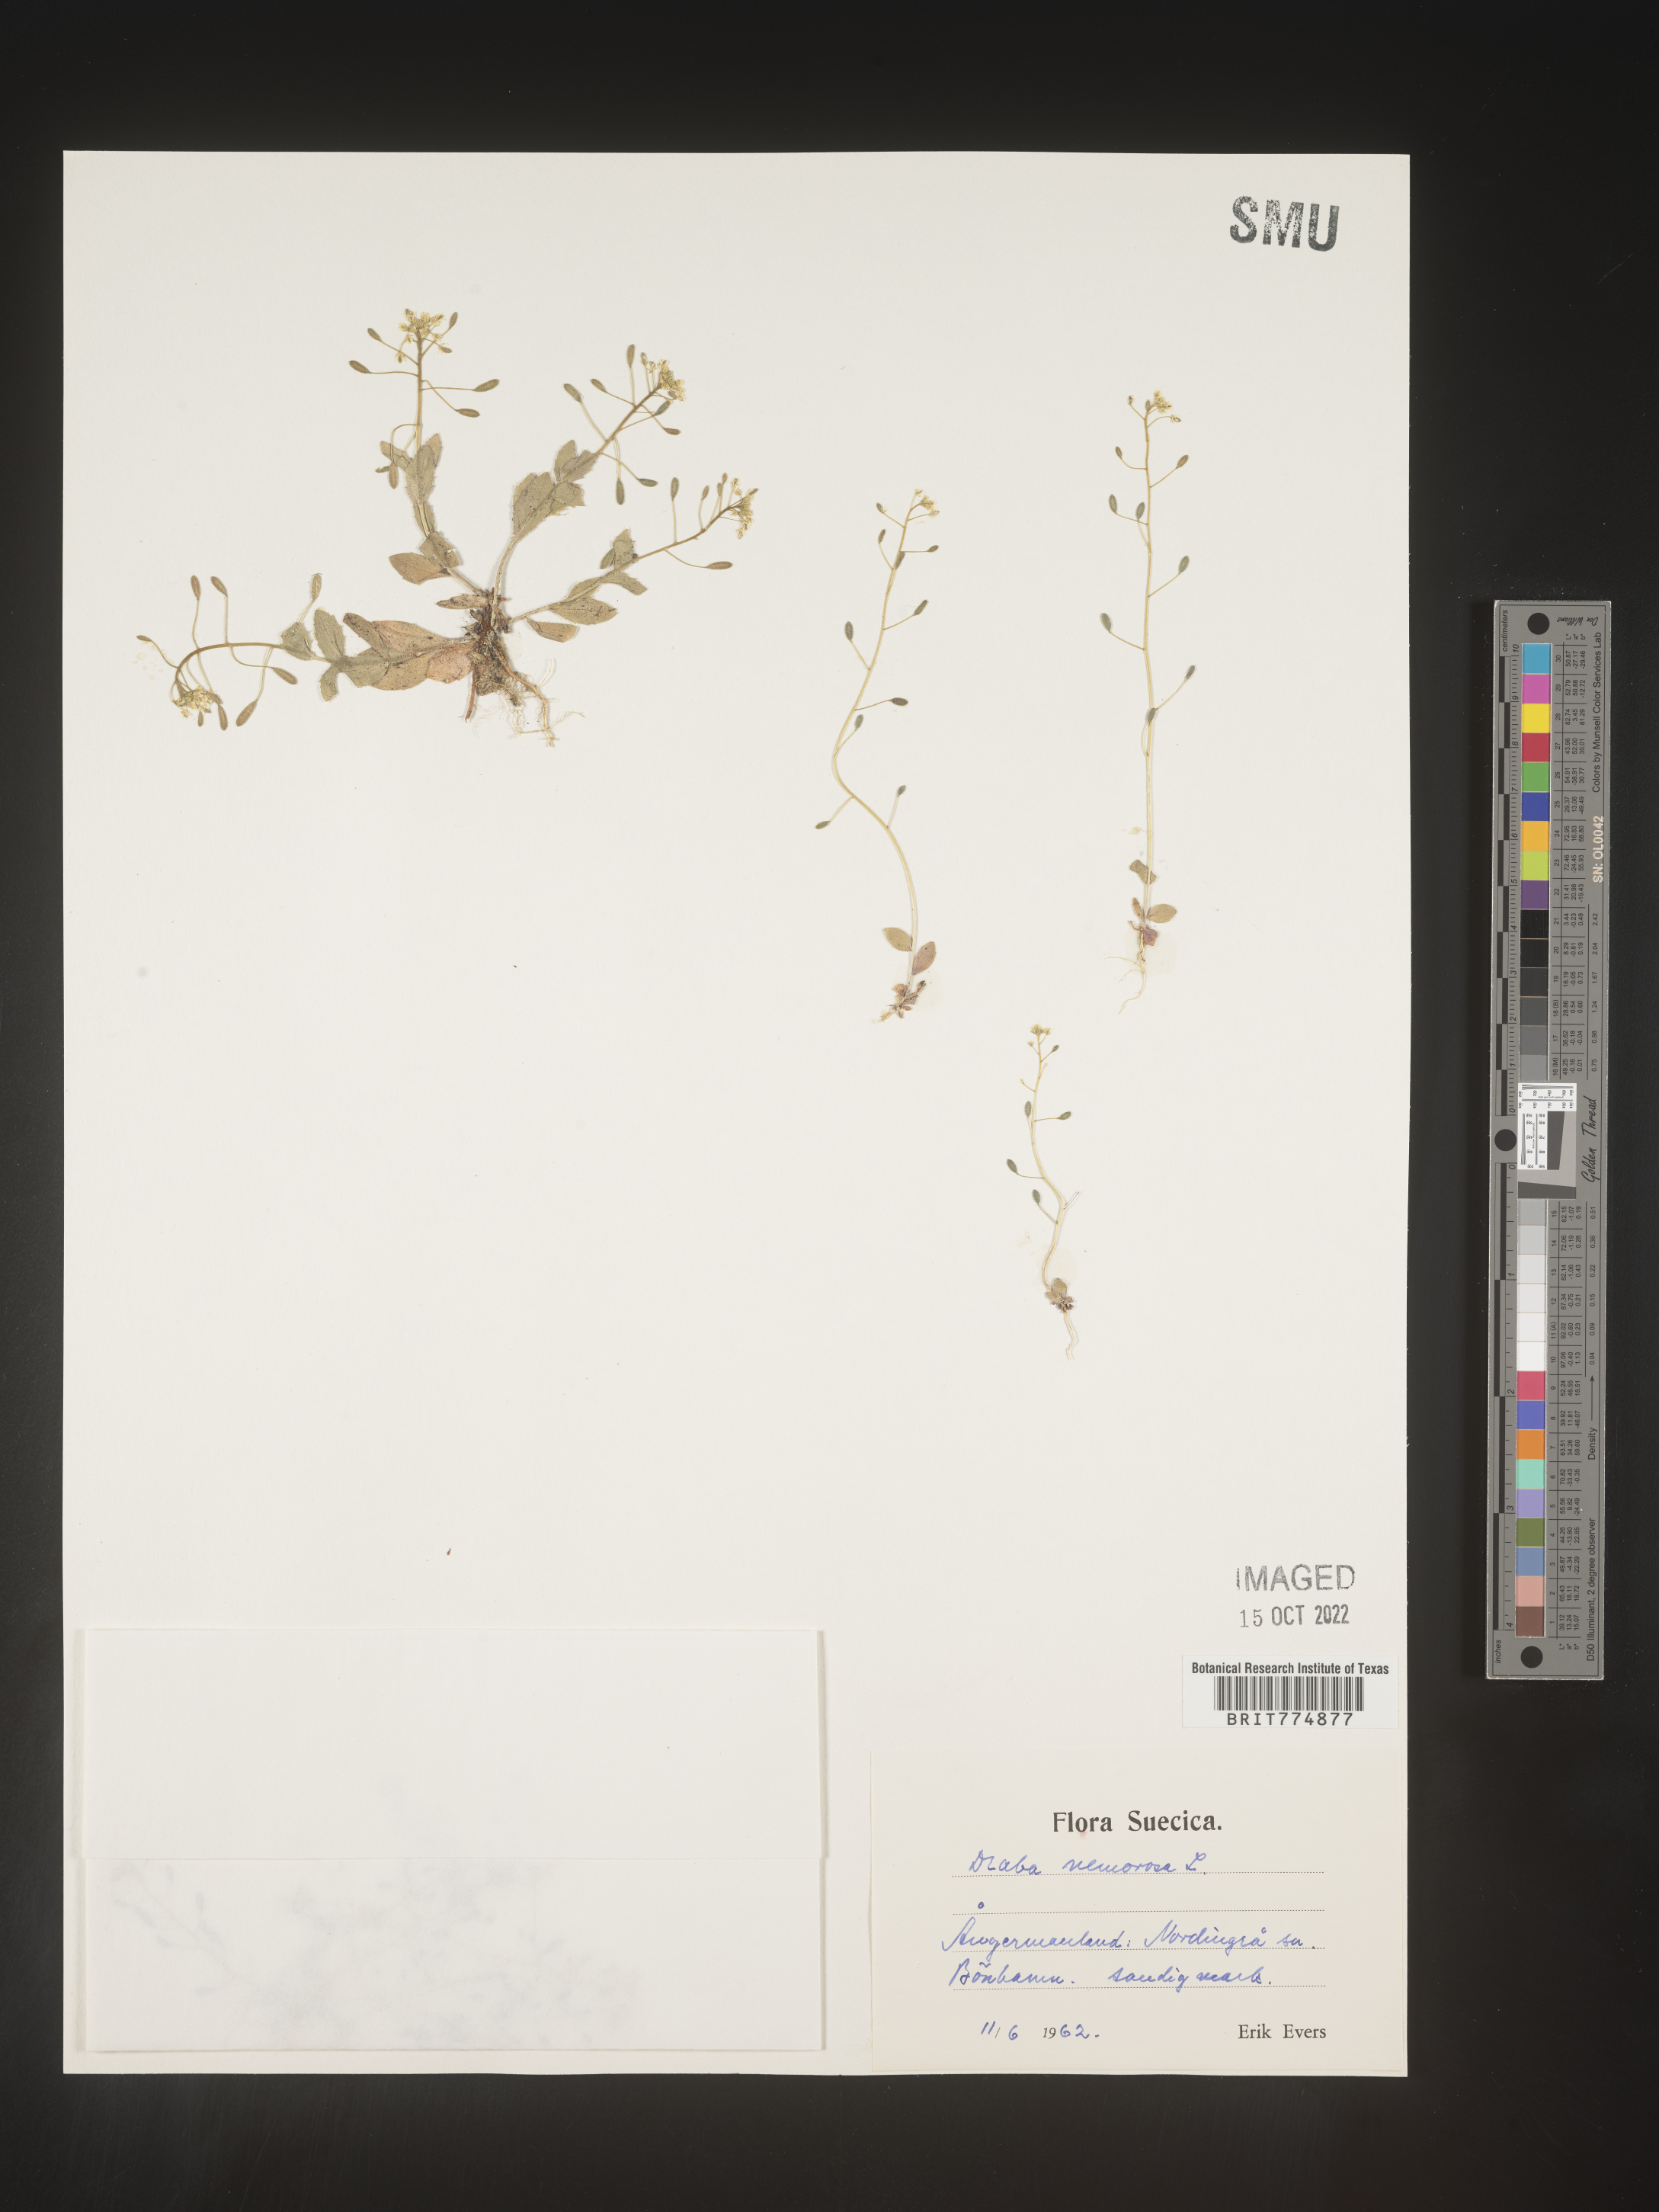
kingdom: Plantae
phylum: Tracheophyta
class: Magnoliopsida
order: Brassicales
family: Brassicaceae
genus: Draba
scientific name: Draba
